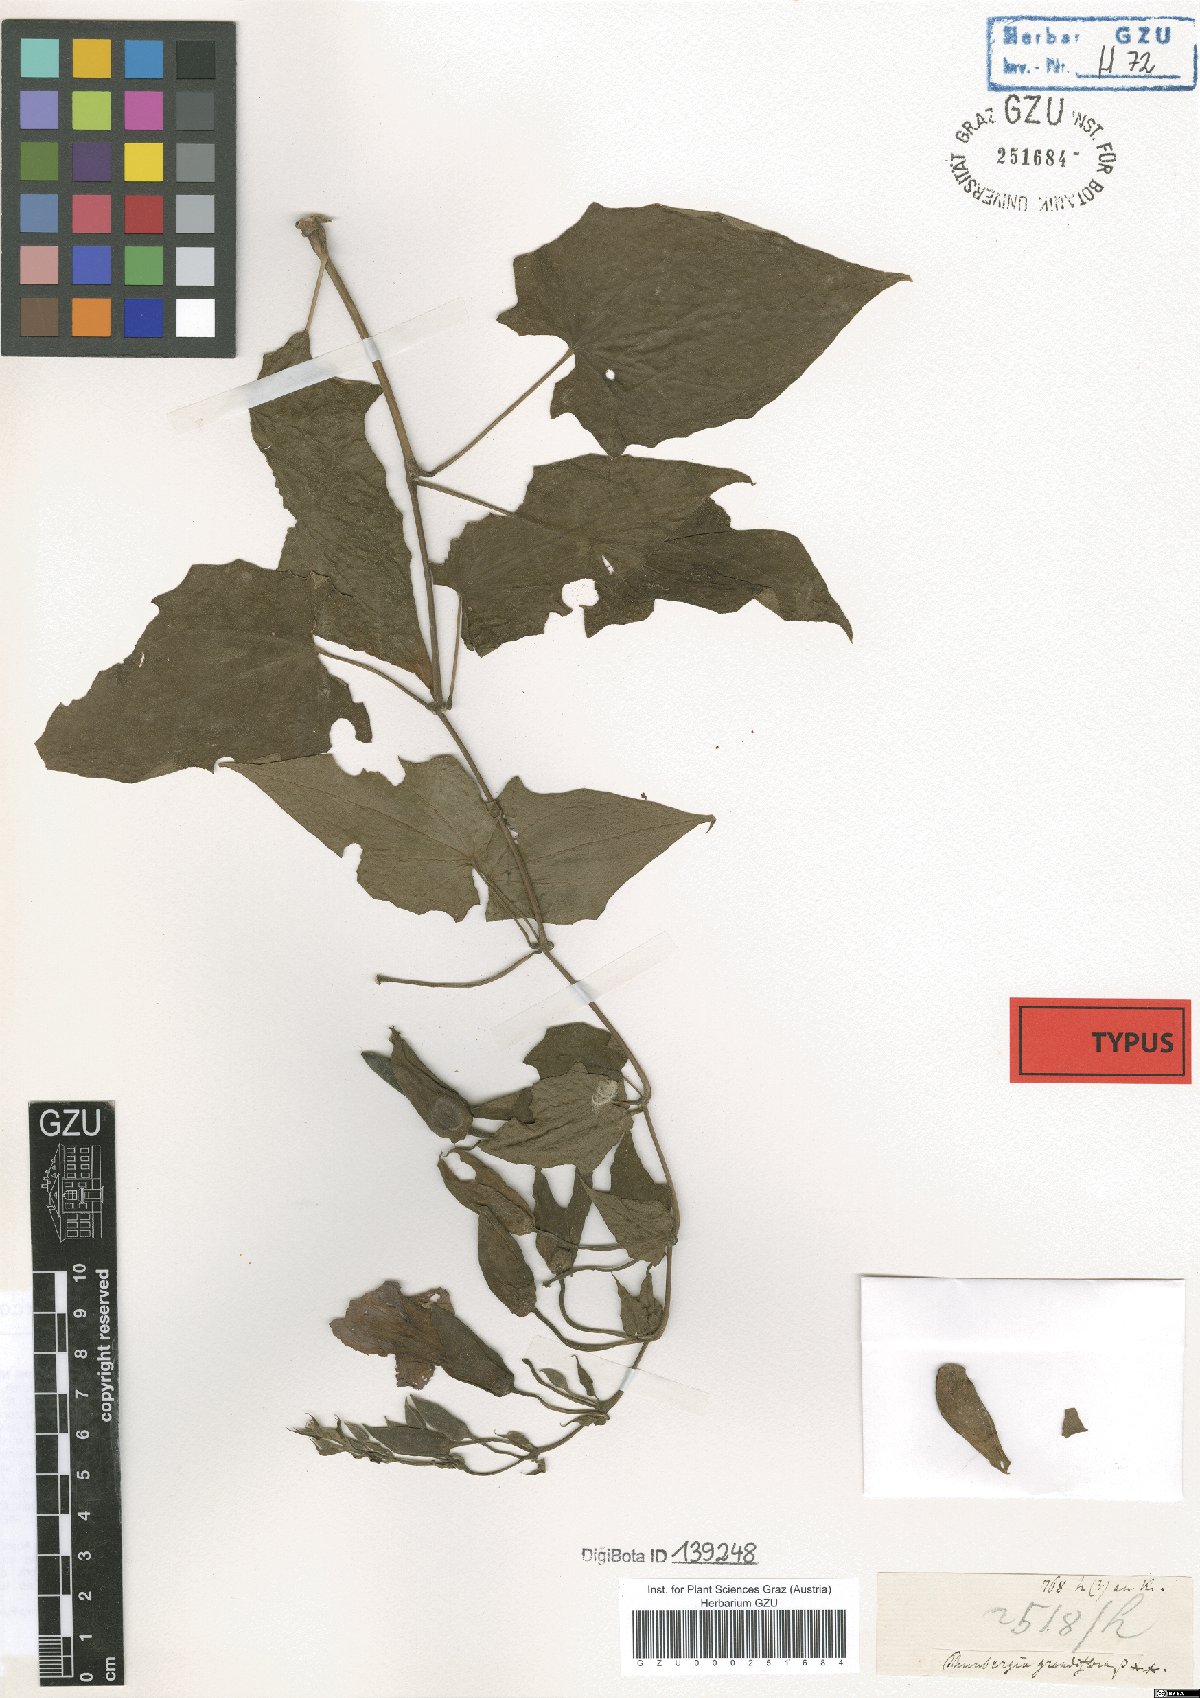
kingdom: Plantae
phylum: Tracheophyta
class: Magnoliopsida
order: Lamiales
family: Acanthaceae
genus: Thunbergia
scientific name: Thunbergia grandiflora
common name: Bengal trumpet
